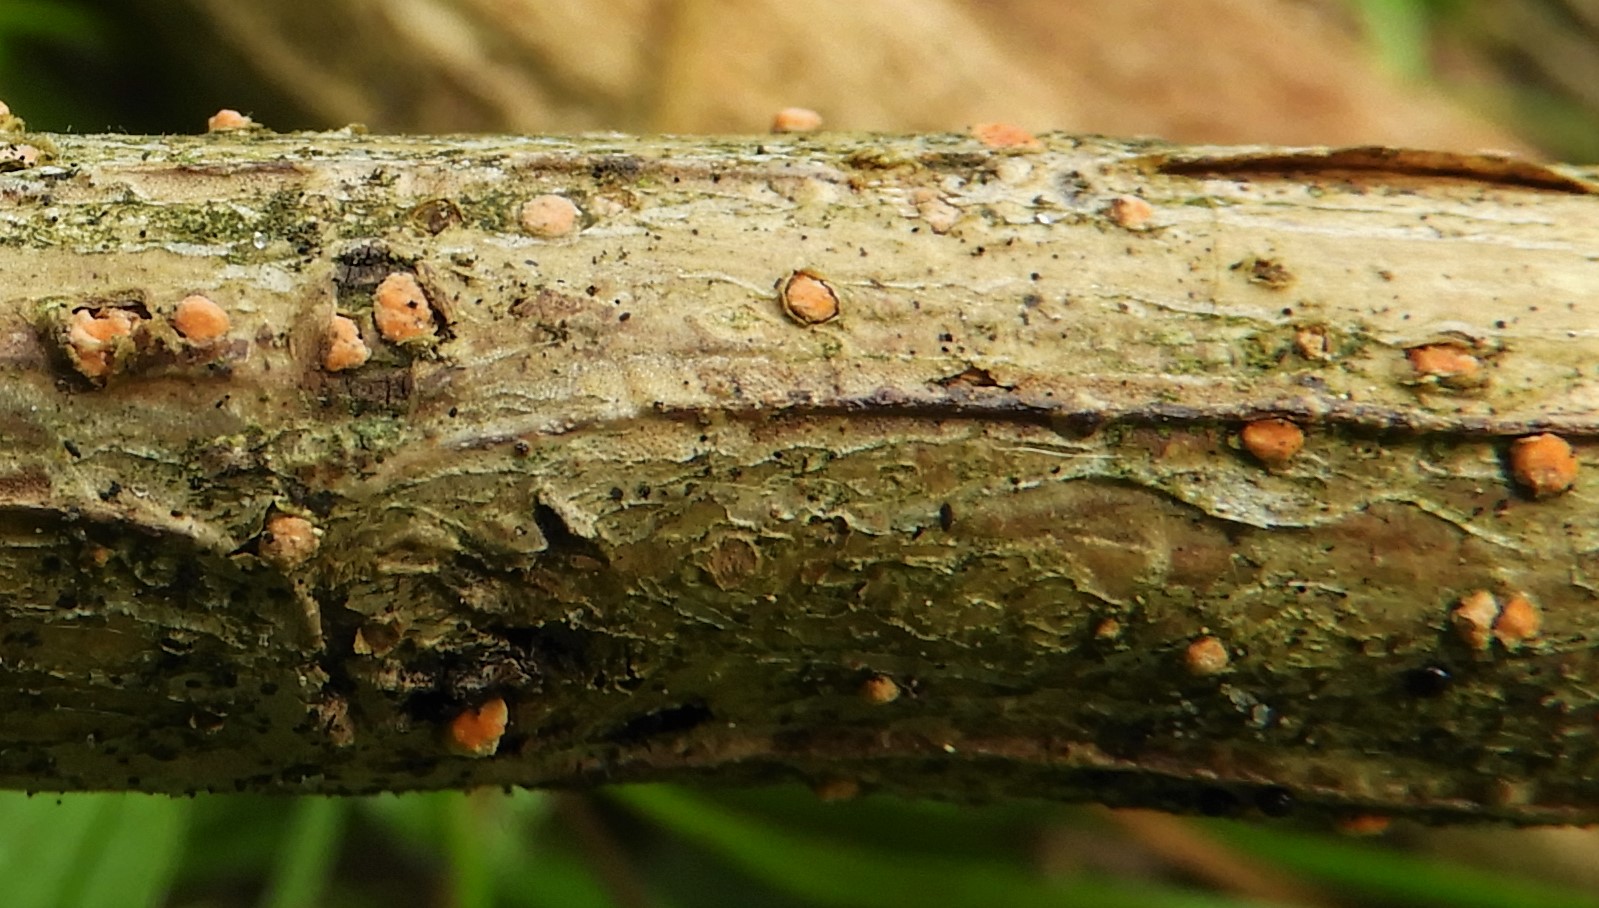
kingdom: Fungi
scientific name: Fungi
